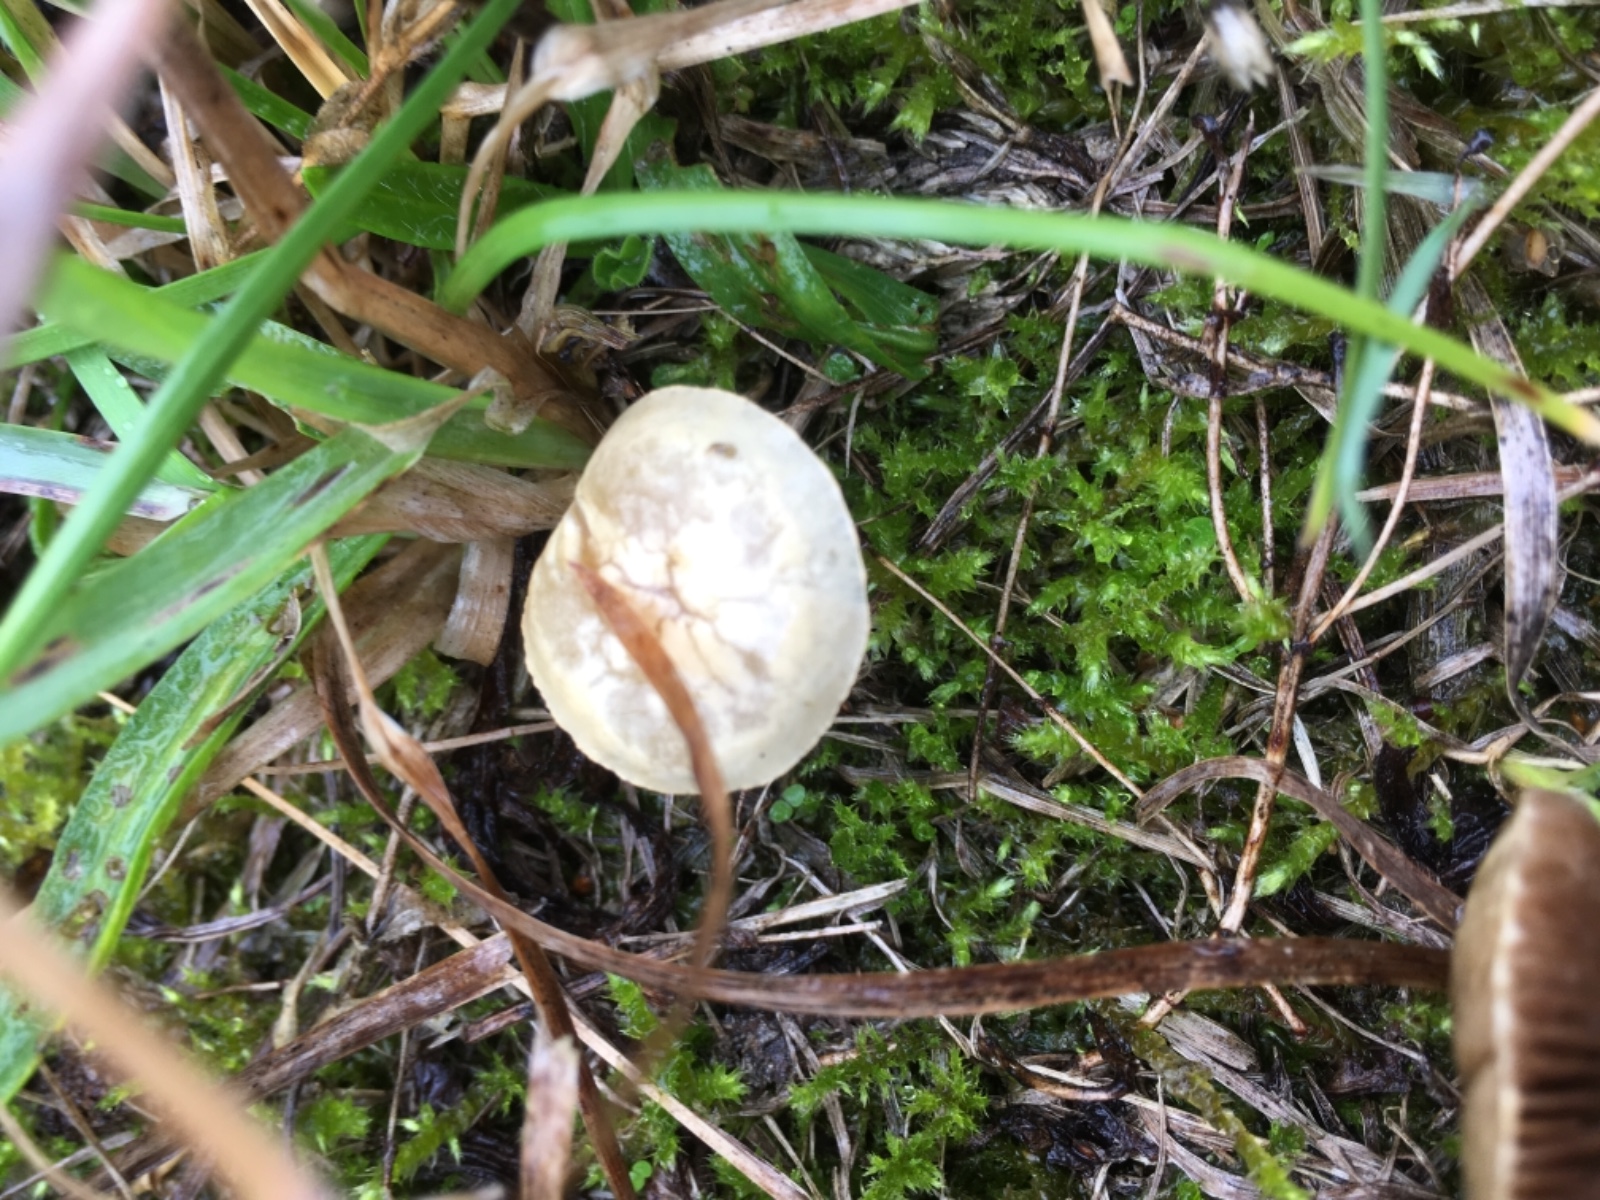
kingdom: Fungi
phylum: Basidiomycota
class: Agaricomycetes
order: Agaricales
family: Strophariaceae
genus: Agrocybe
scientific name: Agrocybe pediades
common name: almindelig agerhat
